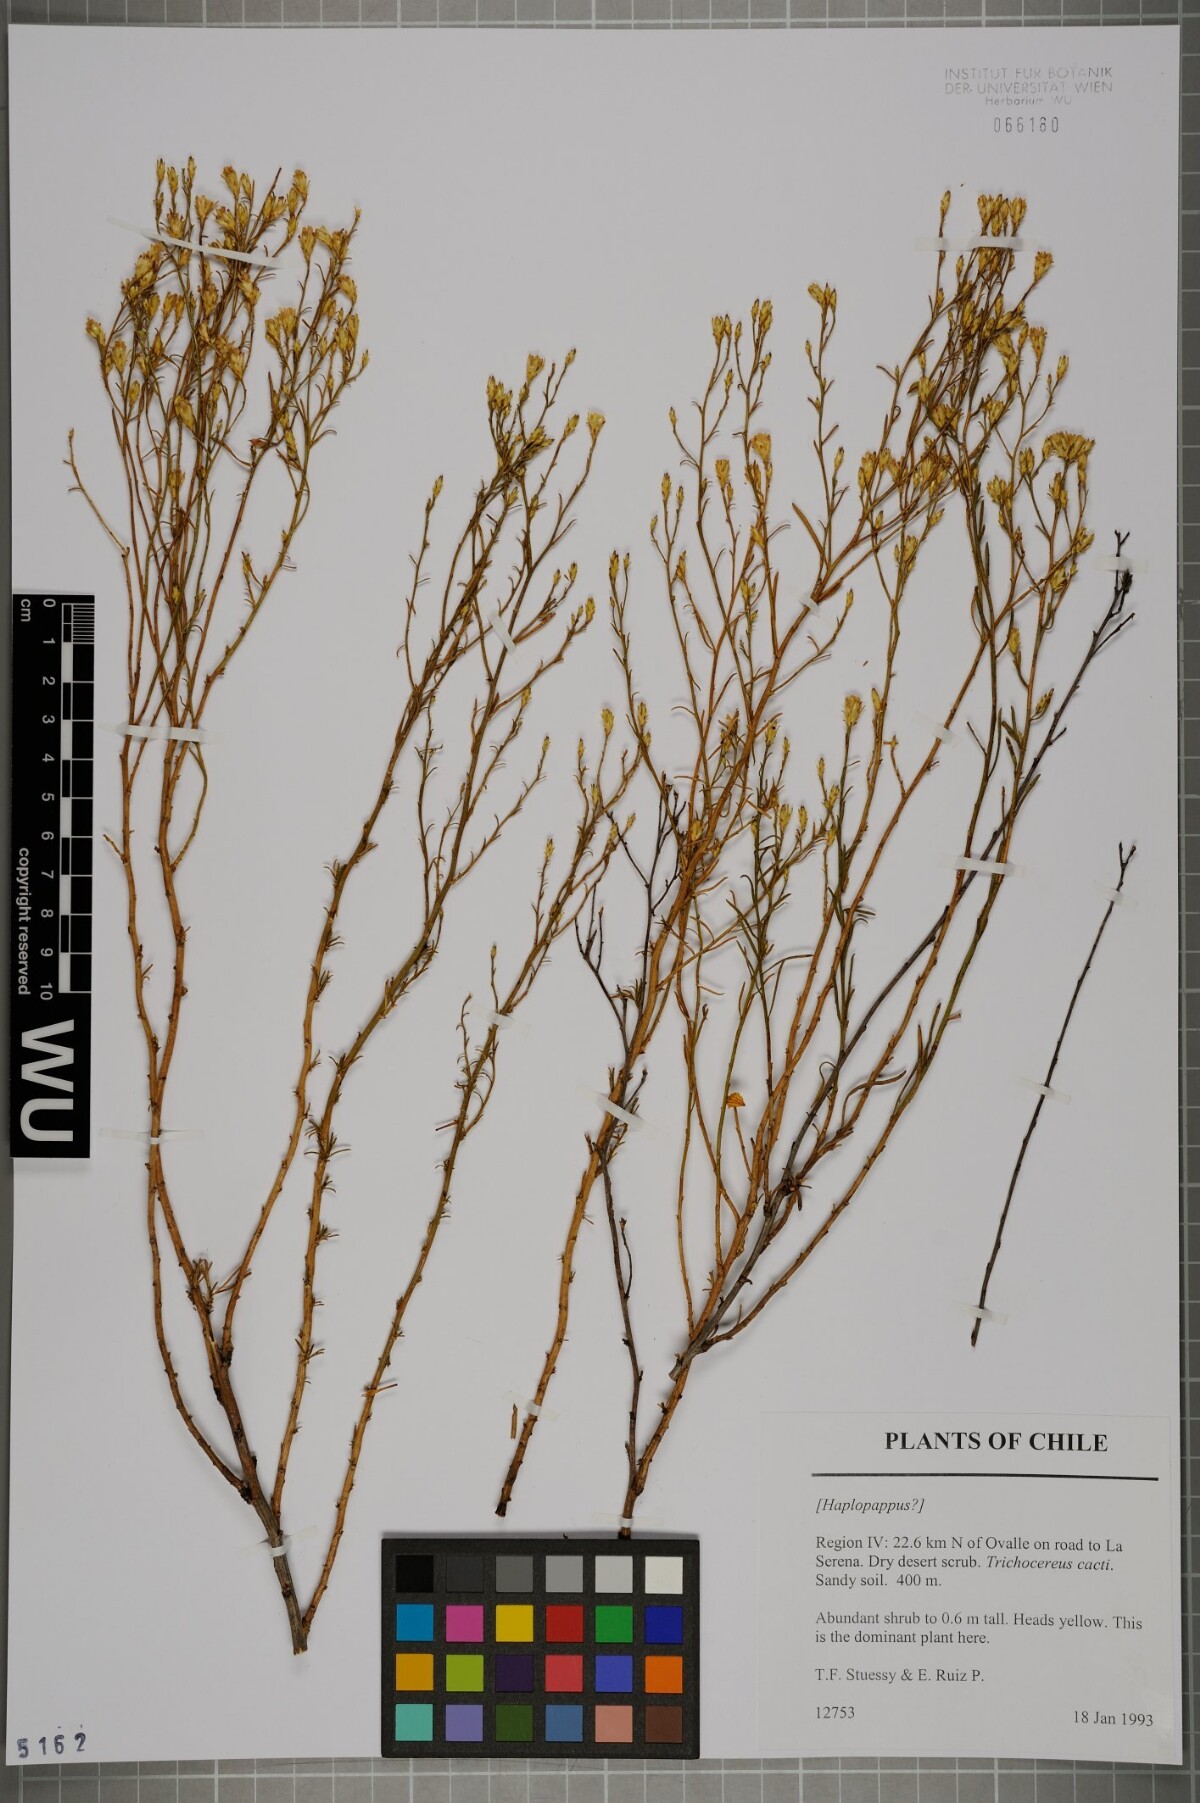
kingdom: Plantae
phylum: Tracheophyta
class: Magnoliopsida
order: Asterales
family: Asteraceae
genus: Baccharis
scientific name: Baccharis linearis
